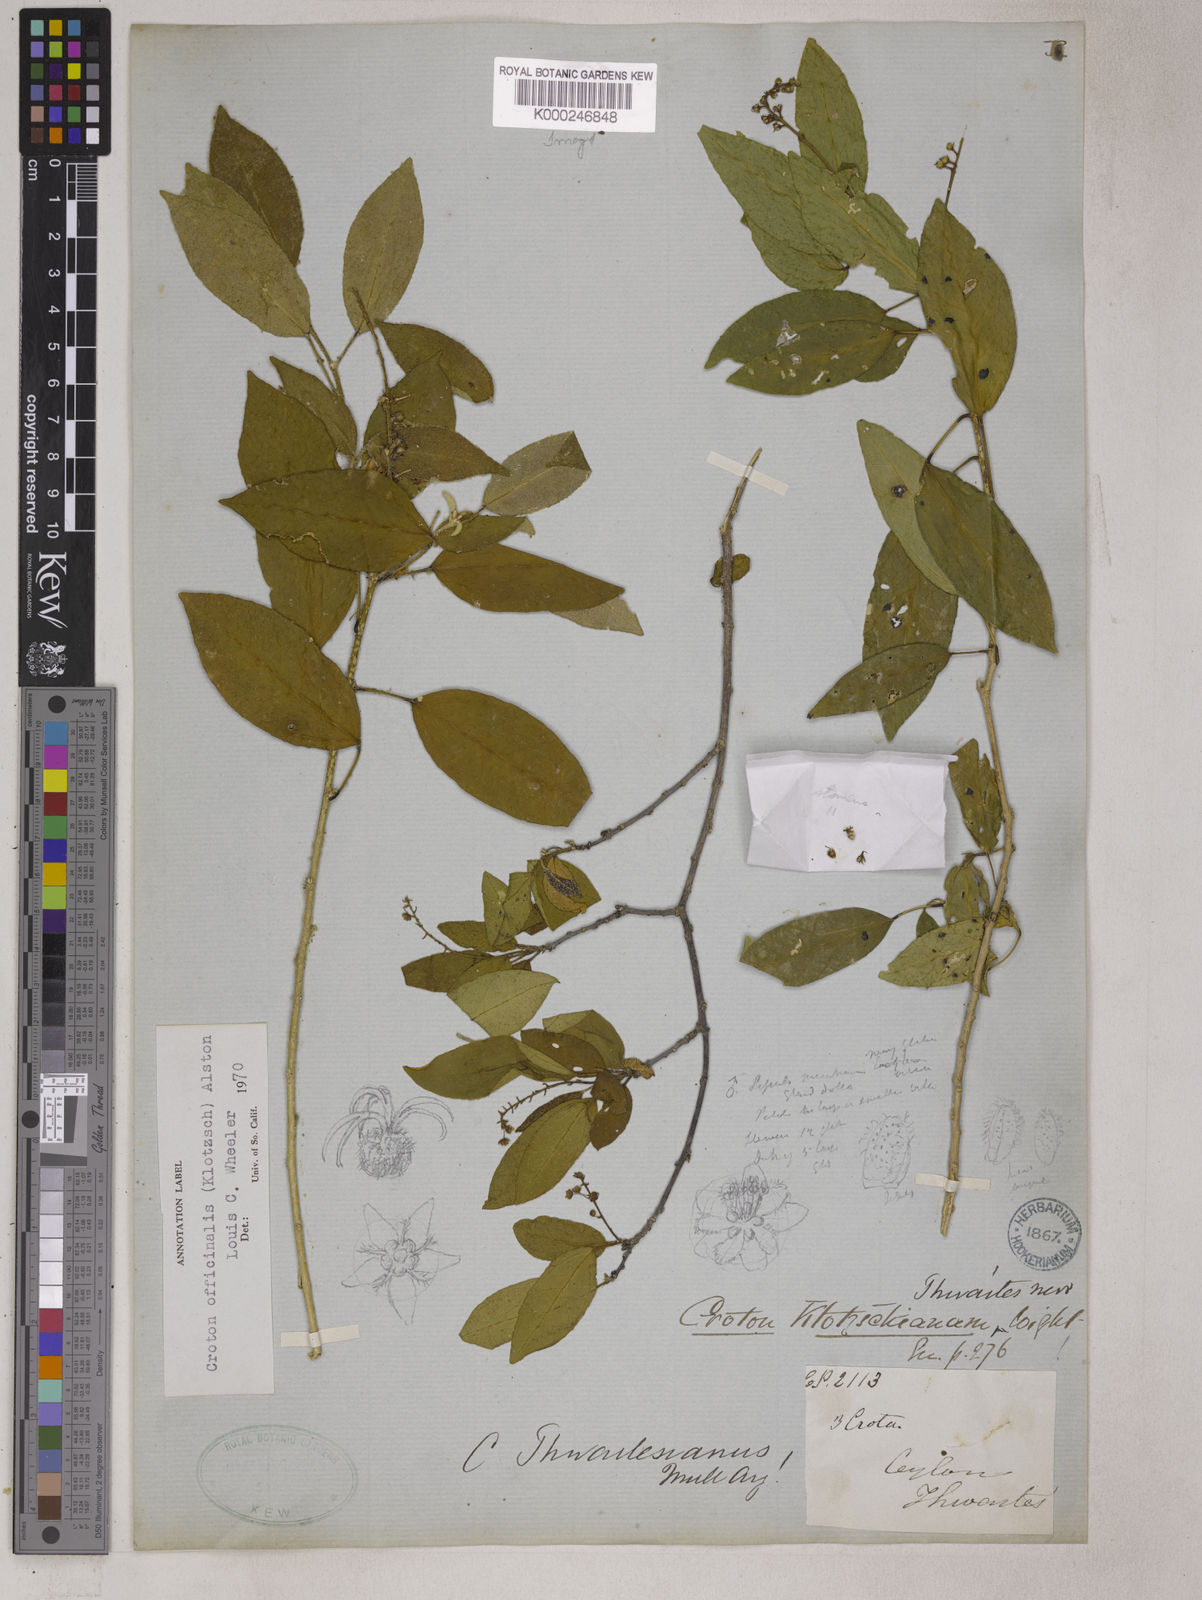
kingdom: Plantae
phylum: Tracheophyta
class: Magnoliopsida
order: Malpighiales
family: Euphorbiaceae
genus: Croton
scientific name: Croton tiglium
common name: Purging croton
